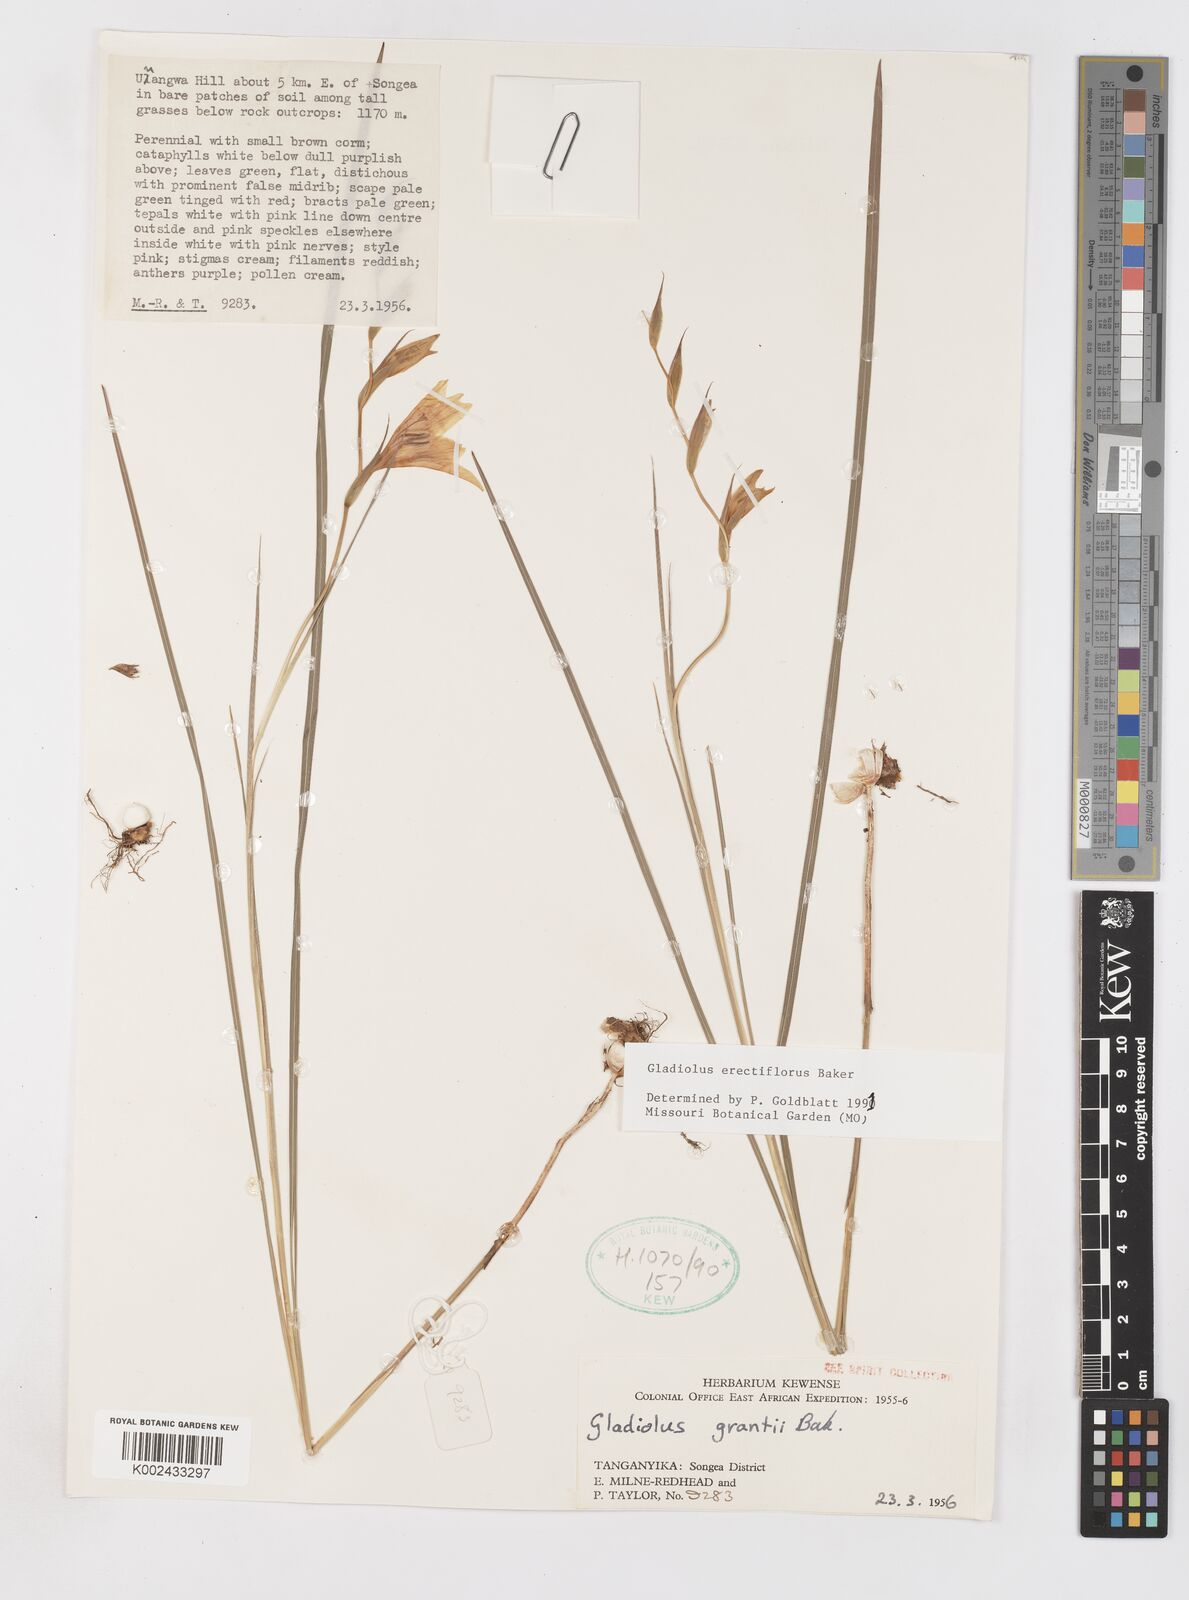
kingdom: Plantae
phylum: Tracheophyta
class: Liliopsida
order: Asparagales
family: Iridaceae
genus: Gladiolus
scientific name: Gladiolus erectiflorus
